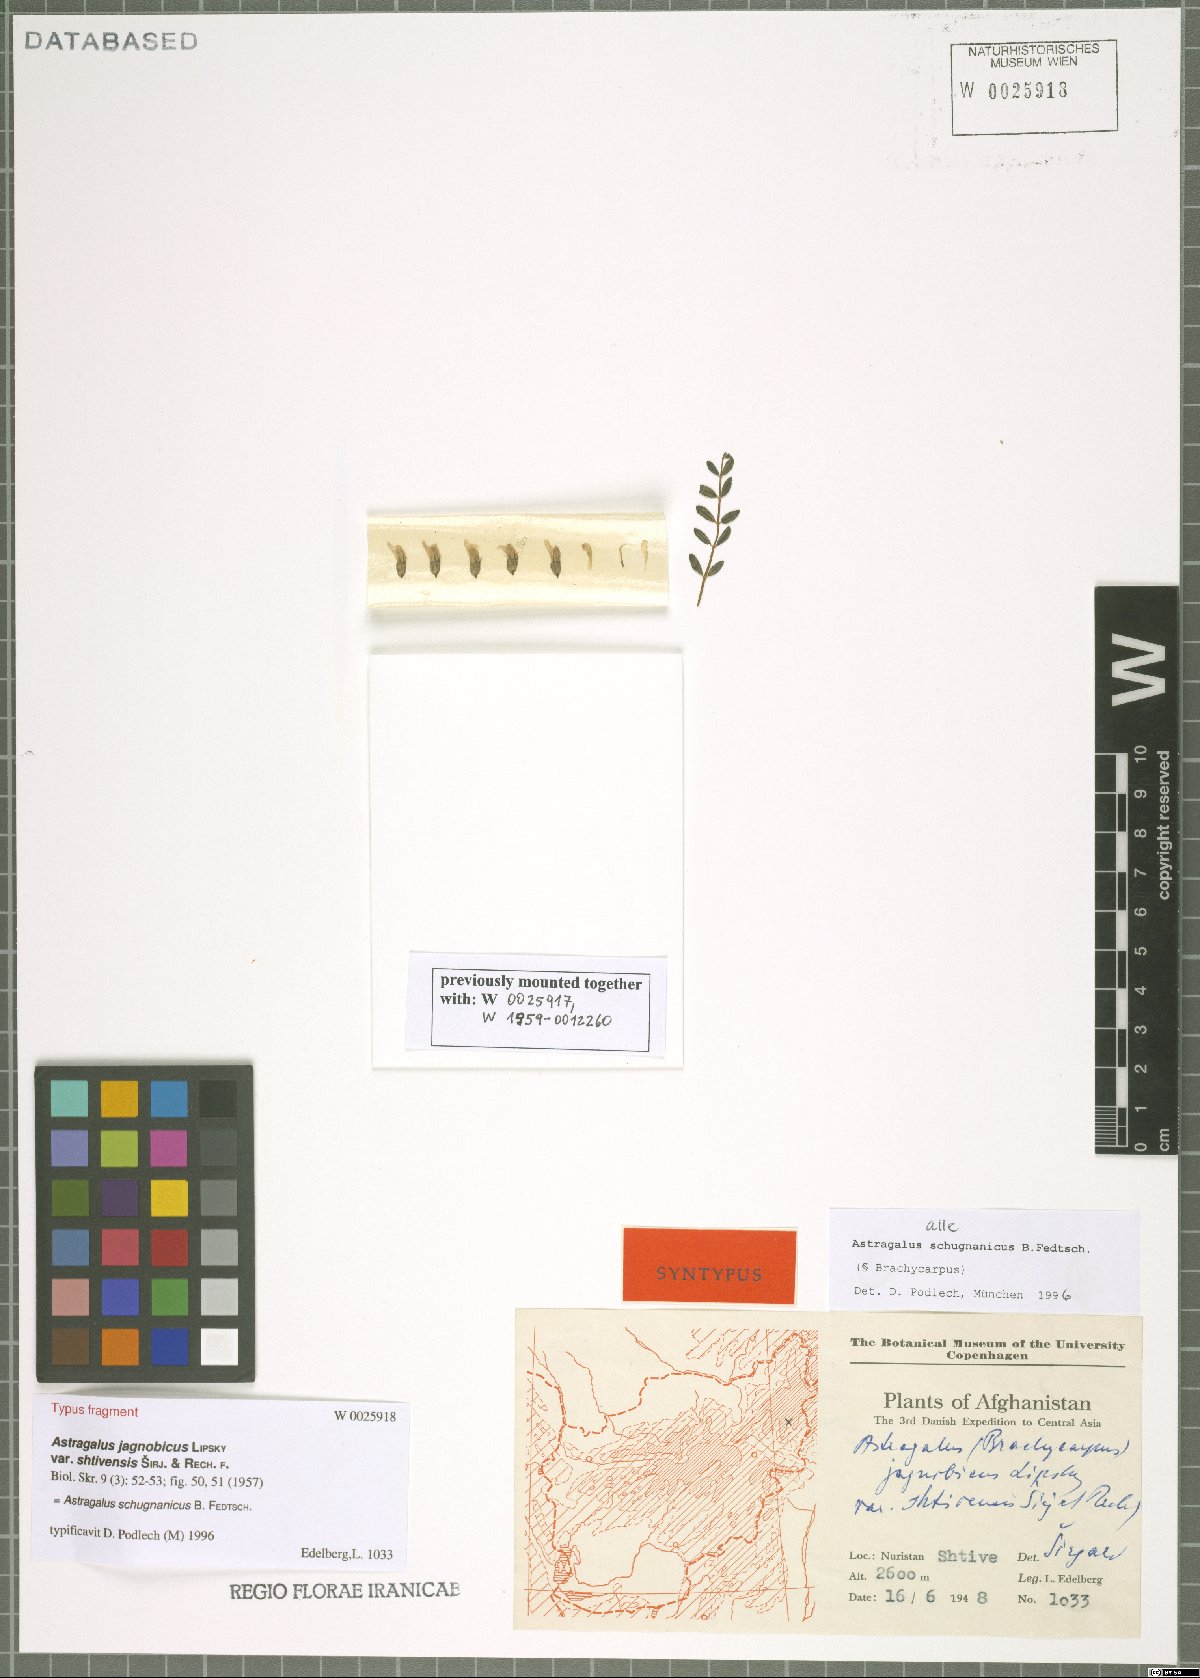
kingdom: Plantae
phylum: Tracheophyta
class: Magnoliopsida
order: Fabales
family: Fabaceae
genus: Astragalus
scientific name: Astragalus schugnanicus
